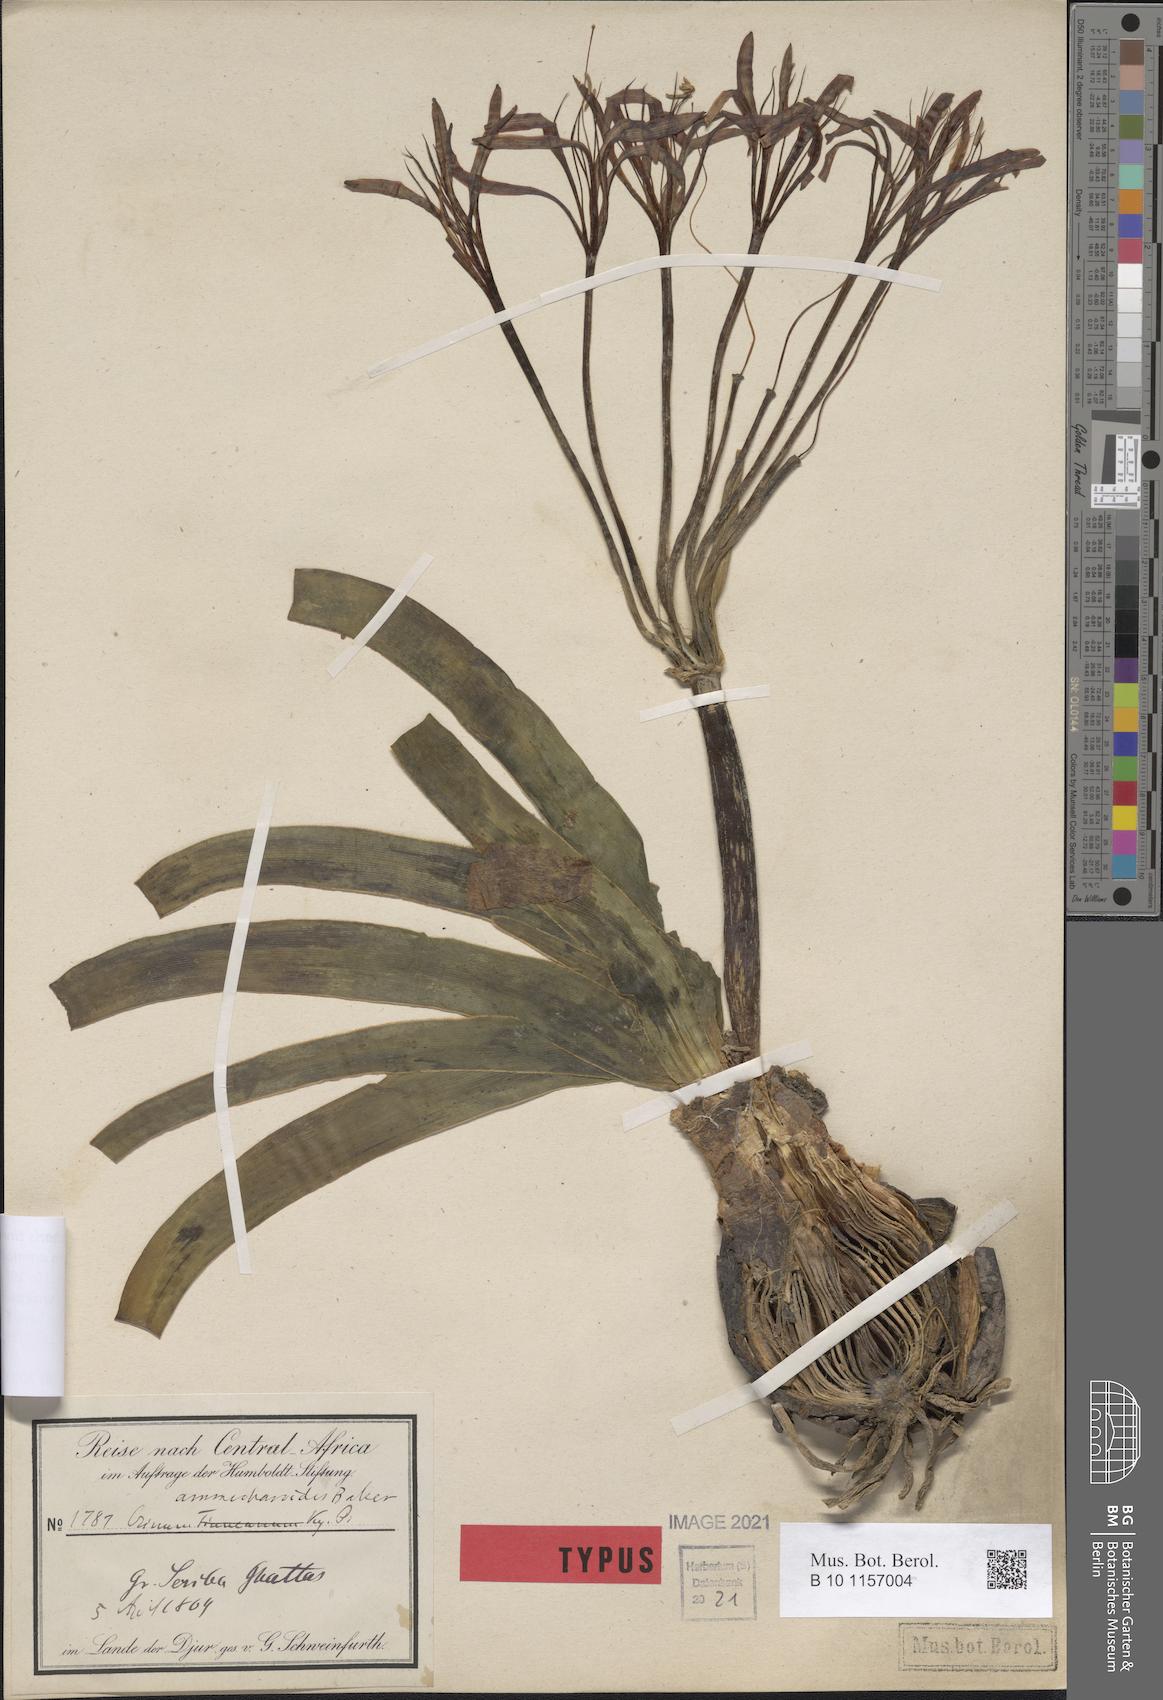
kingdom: Plantae
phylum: Tracheophyta
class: Liliopsida
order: Asparagales
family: Amaryllidaceae
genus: Ammocharis
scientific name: Ammocharis tinneana
